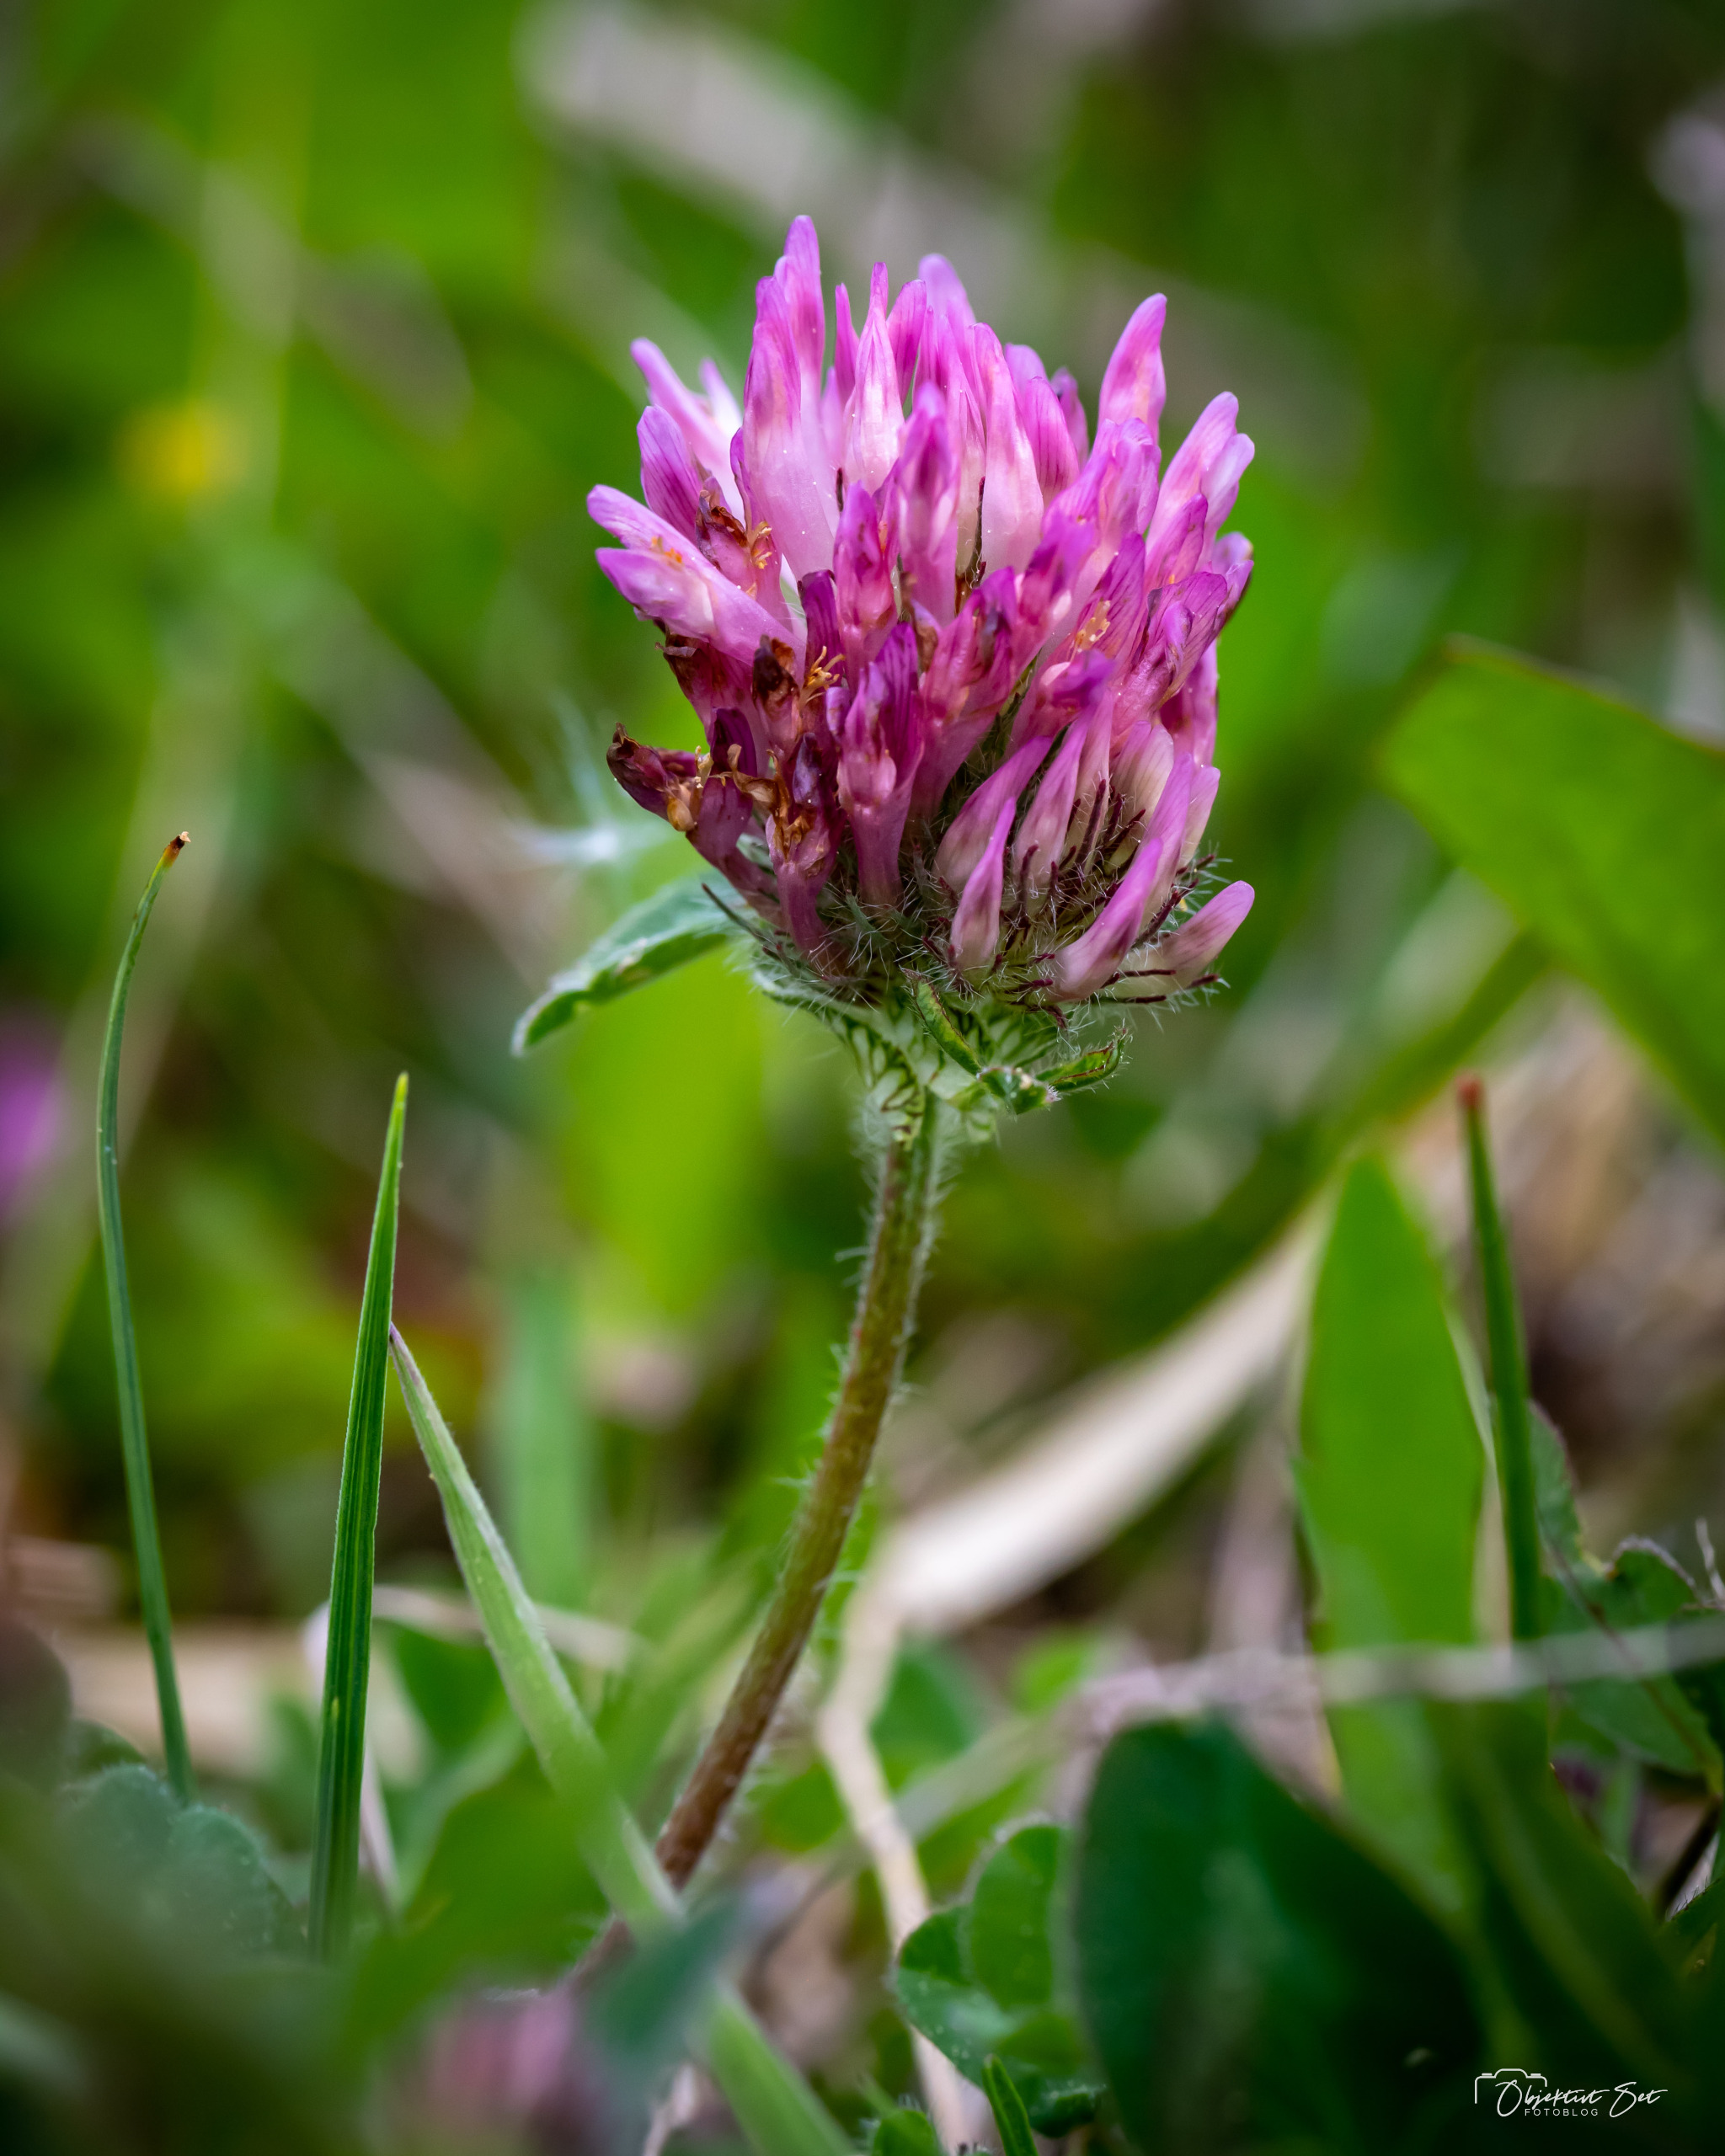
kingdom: Plantae
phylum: Tracheophyta
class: Magnoliopsida
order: Fabales
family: Fabaceae
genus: Trifolium
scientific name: Trifolium pratense
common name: Rød-kløver
